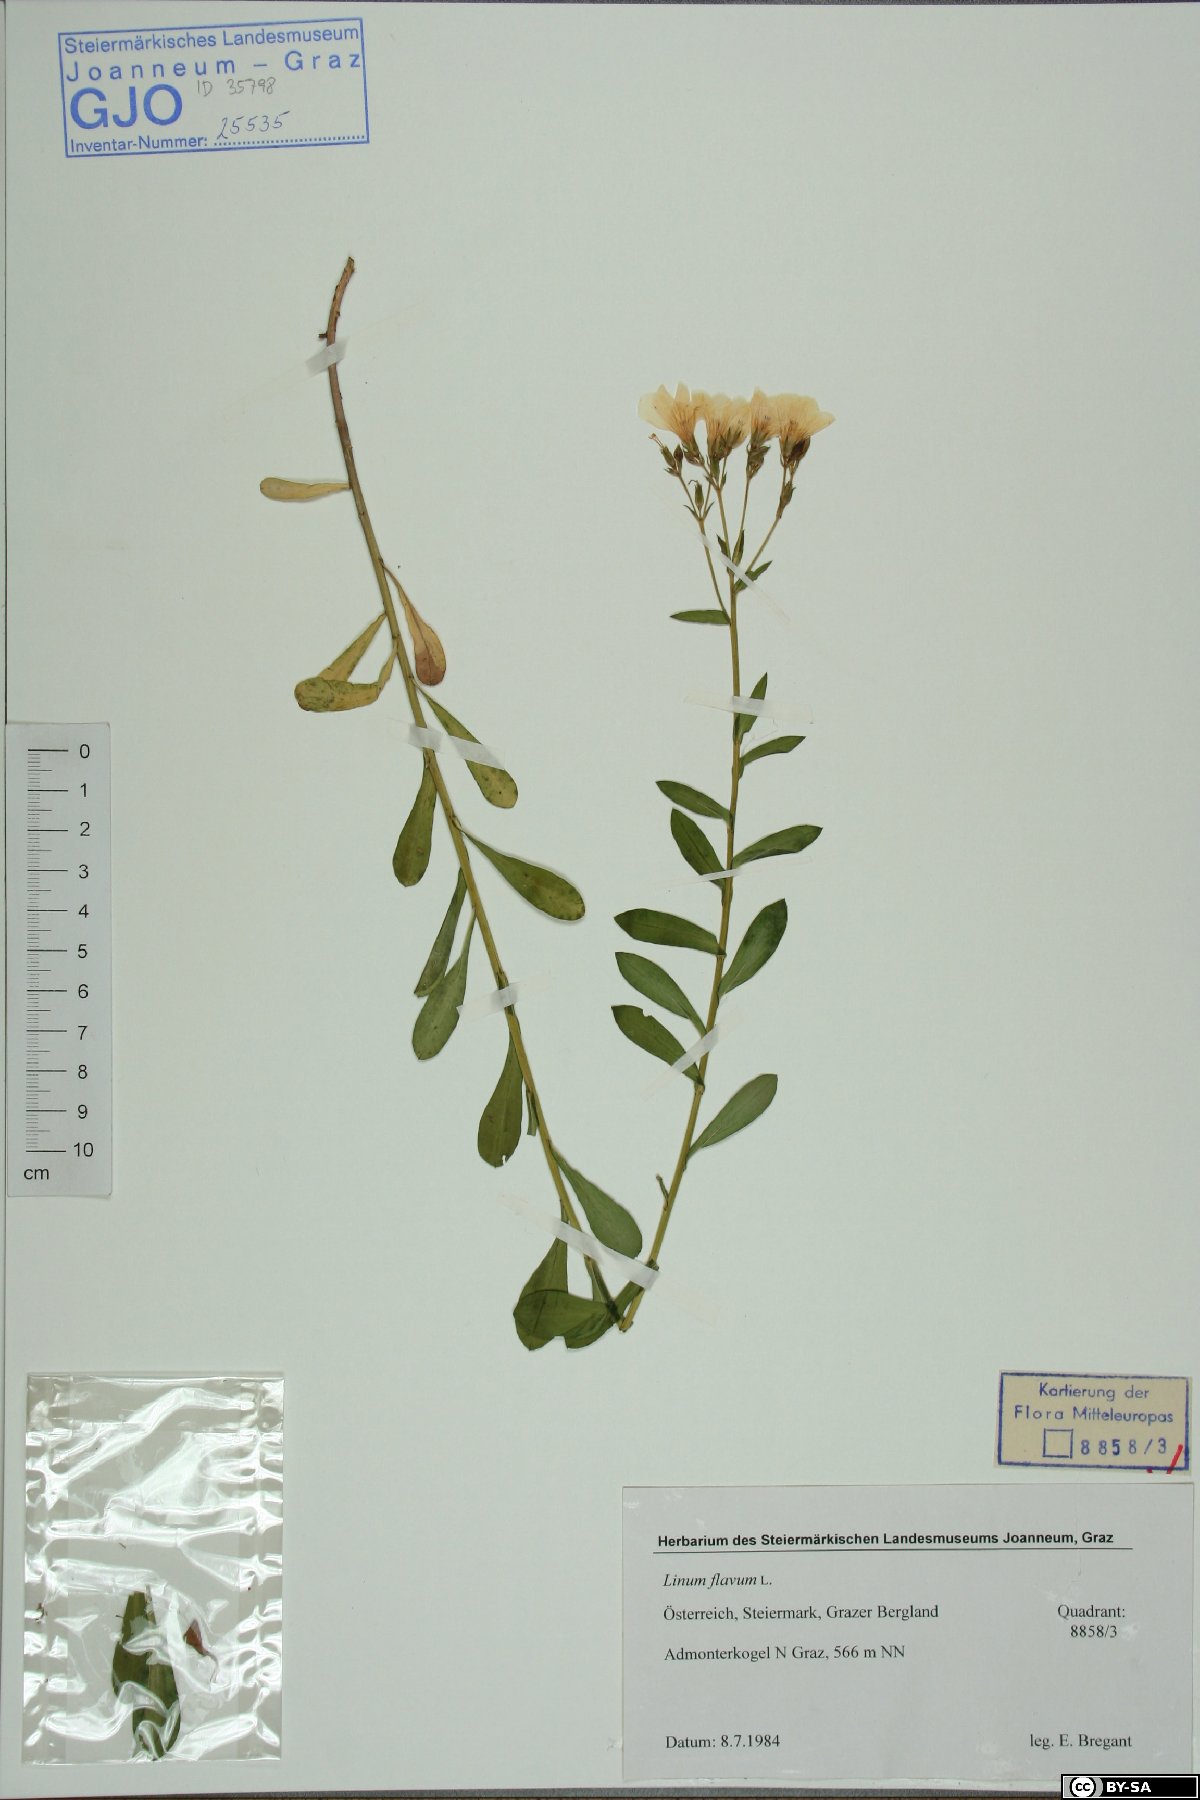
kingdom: Plantae
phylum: Tracheophyta
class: Magnoliopsida
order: Malpighiales
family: Linaceae
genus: Linum
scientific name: Linum flavum
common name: Yellow flax
